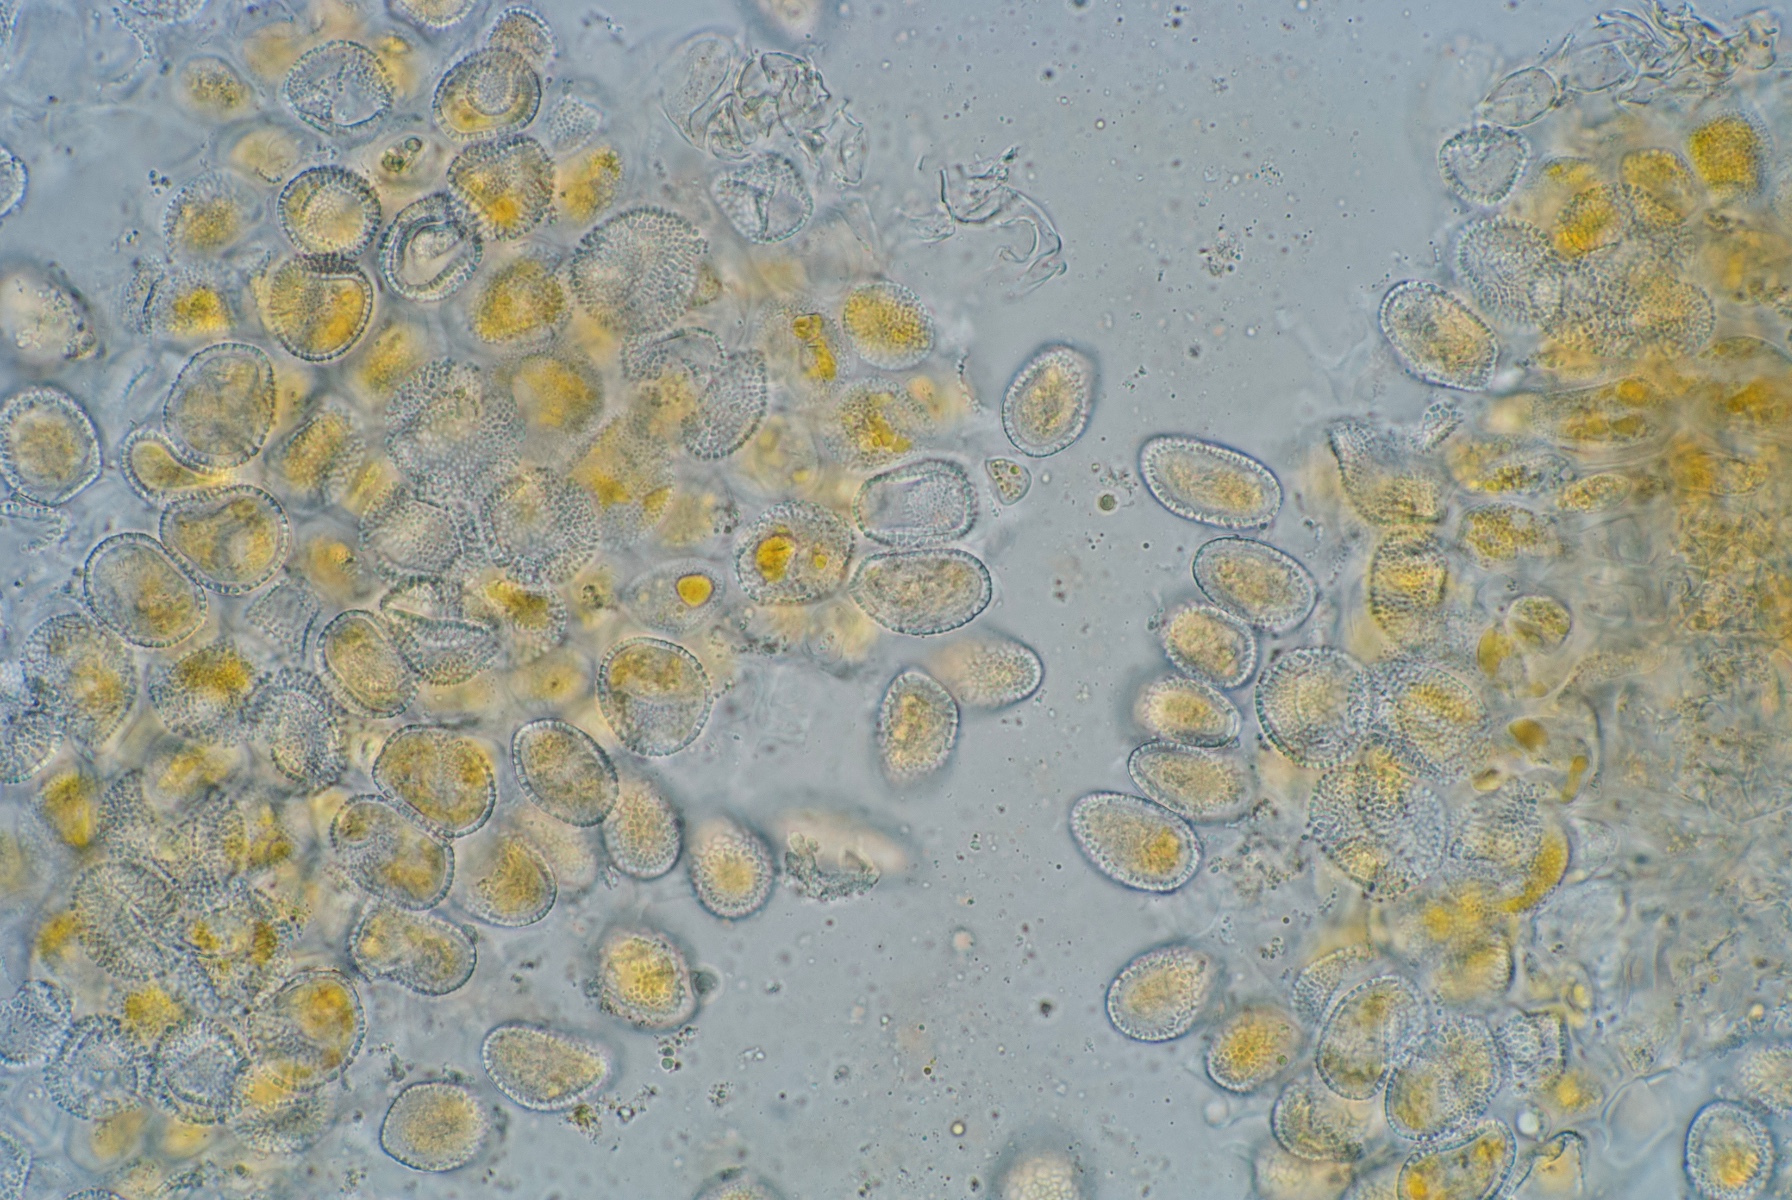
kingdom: Fungi
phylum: Basidiomycota
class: Pucciniomycetes
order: Pucciniales
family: Melampsoraceae
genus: Melampsora
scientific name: Melampsora hypericorum
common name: Tutsan rust
